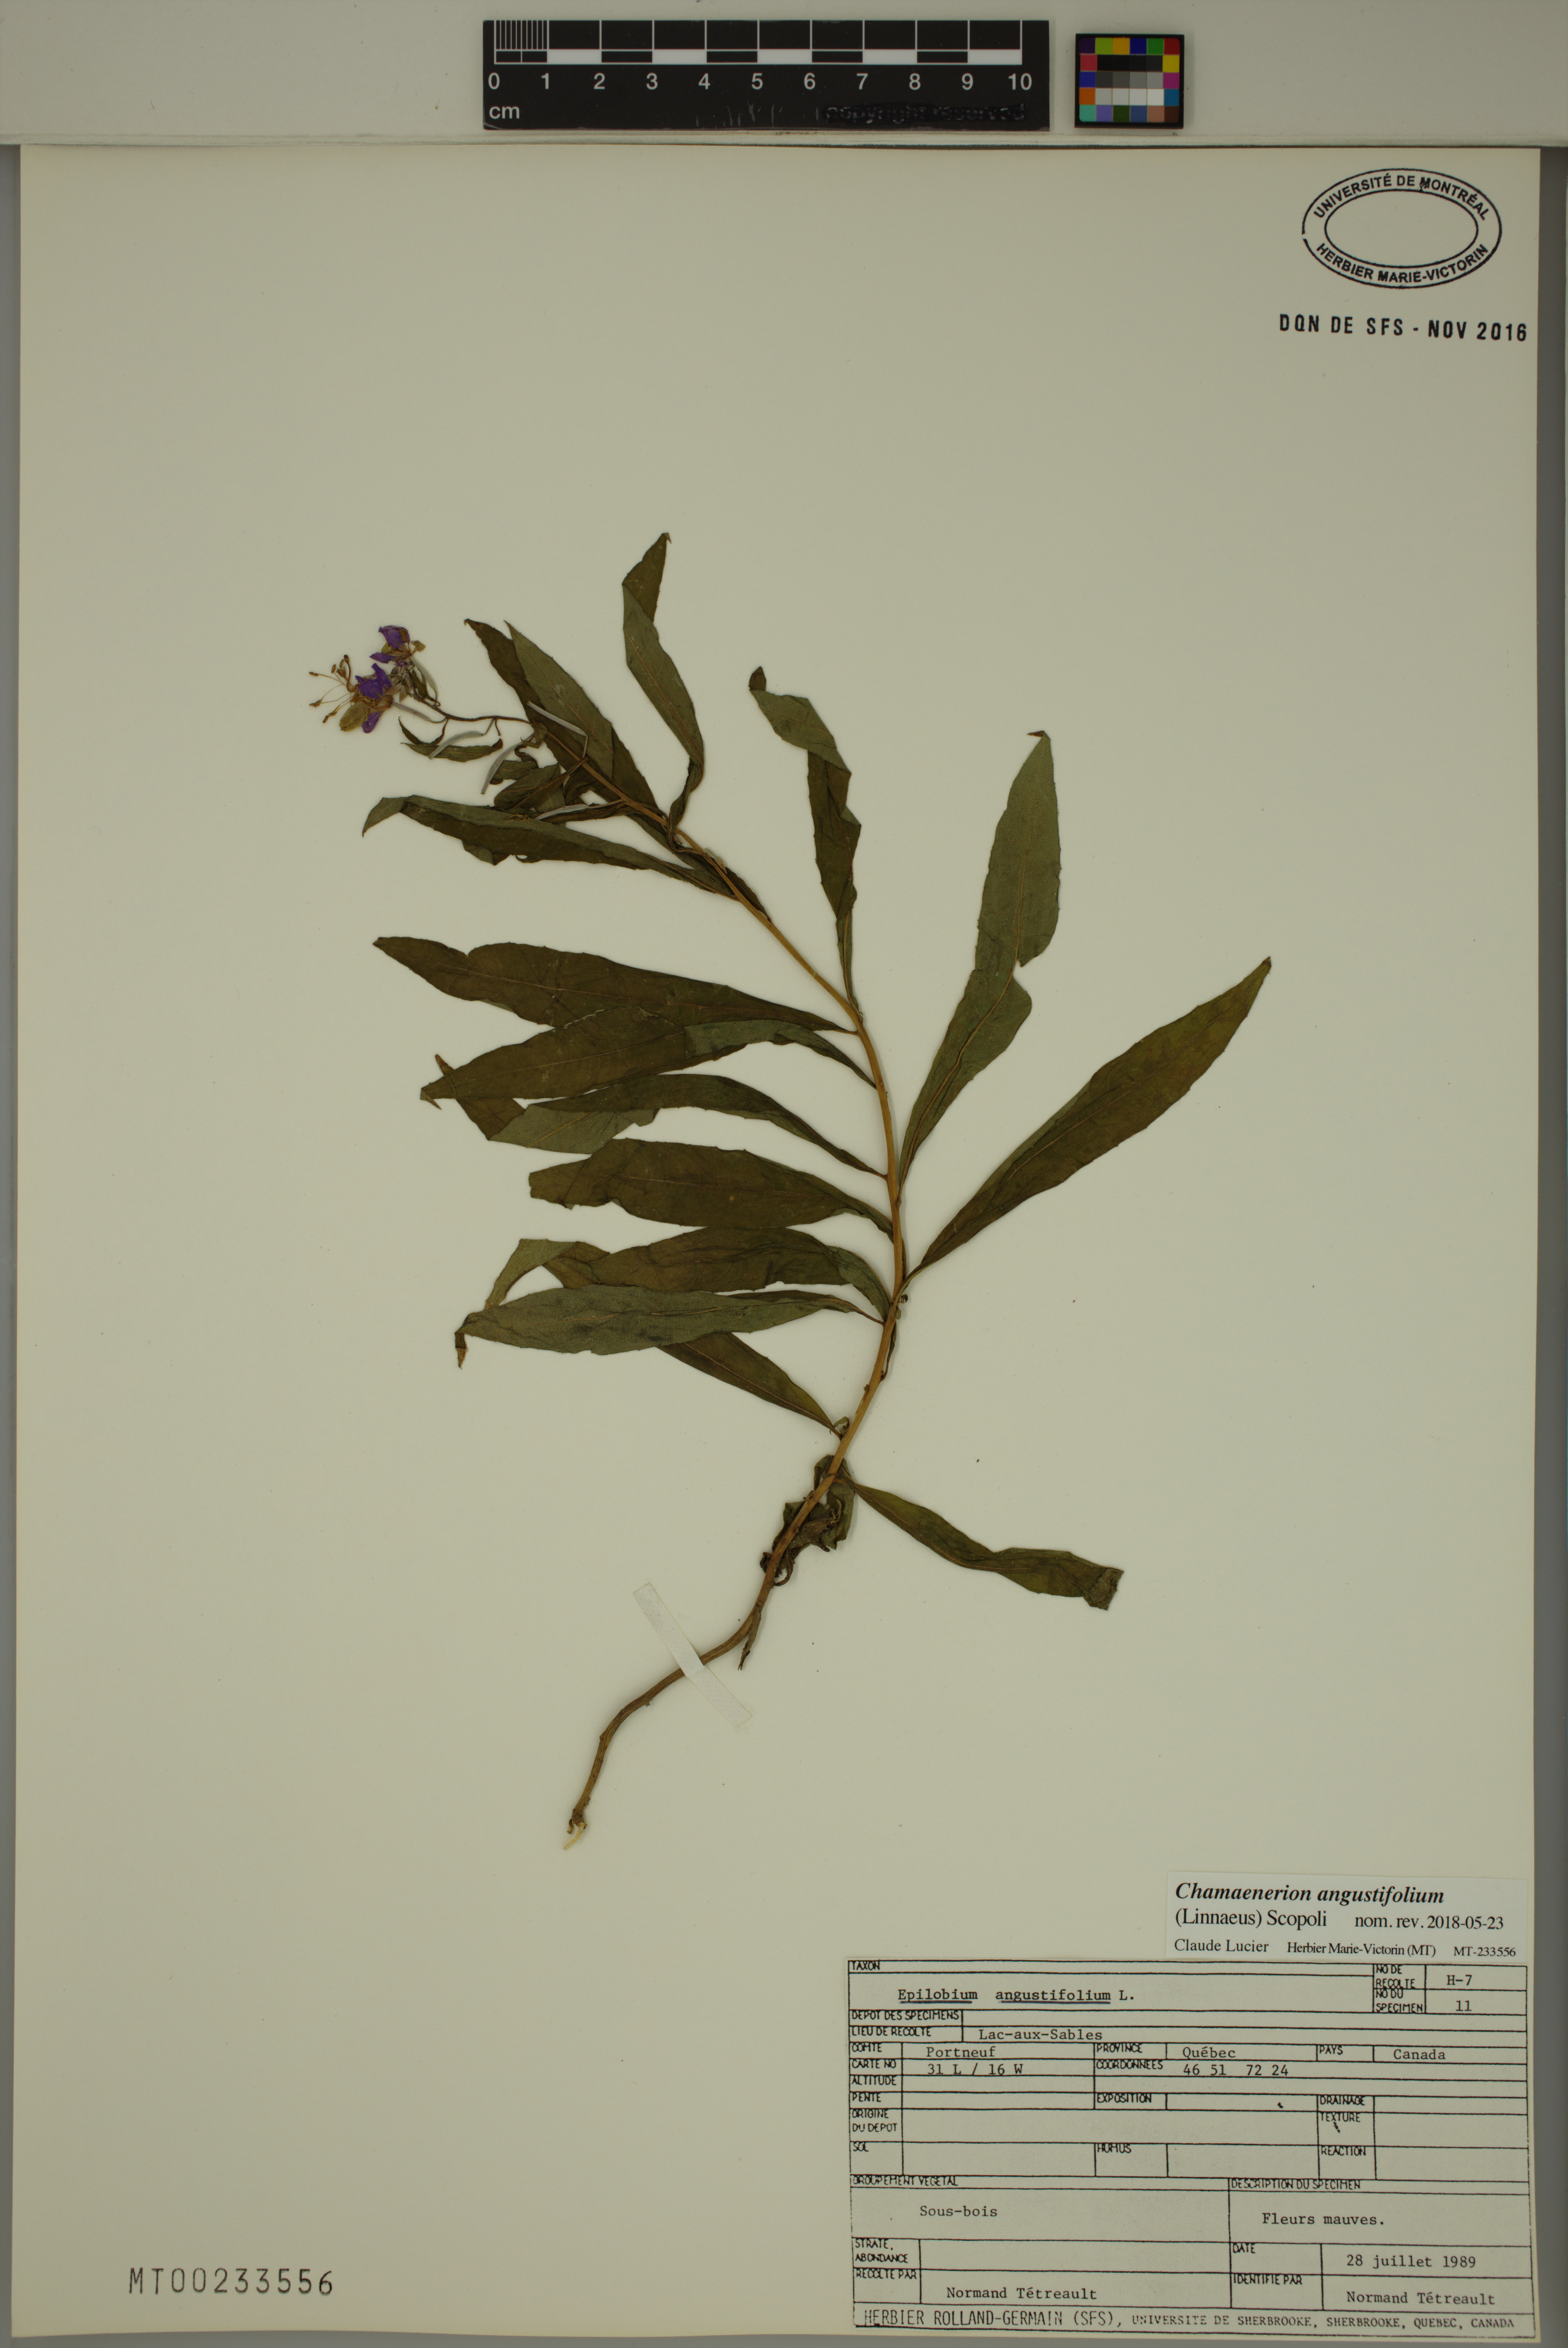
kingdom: Plantae
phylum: Tracheophyta
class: Magnoliopsida
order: Myrtales
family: Onagraceae
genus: Chamaenerion
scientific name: Chamaenerion angustifolium
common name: Fireweed
